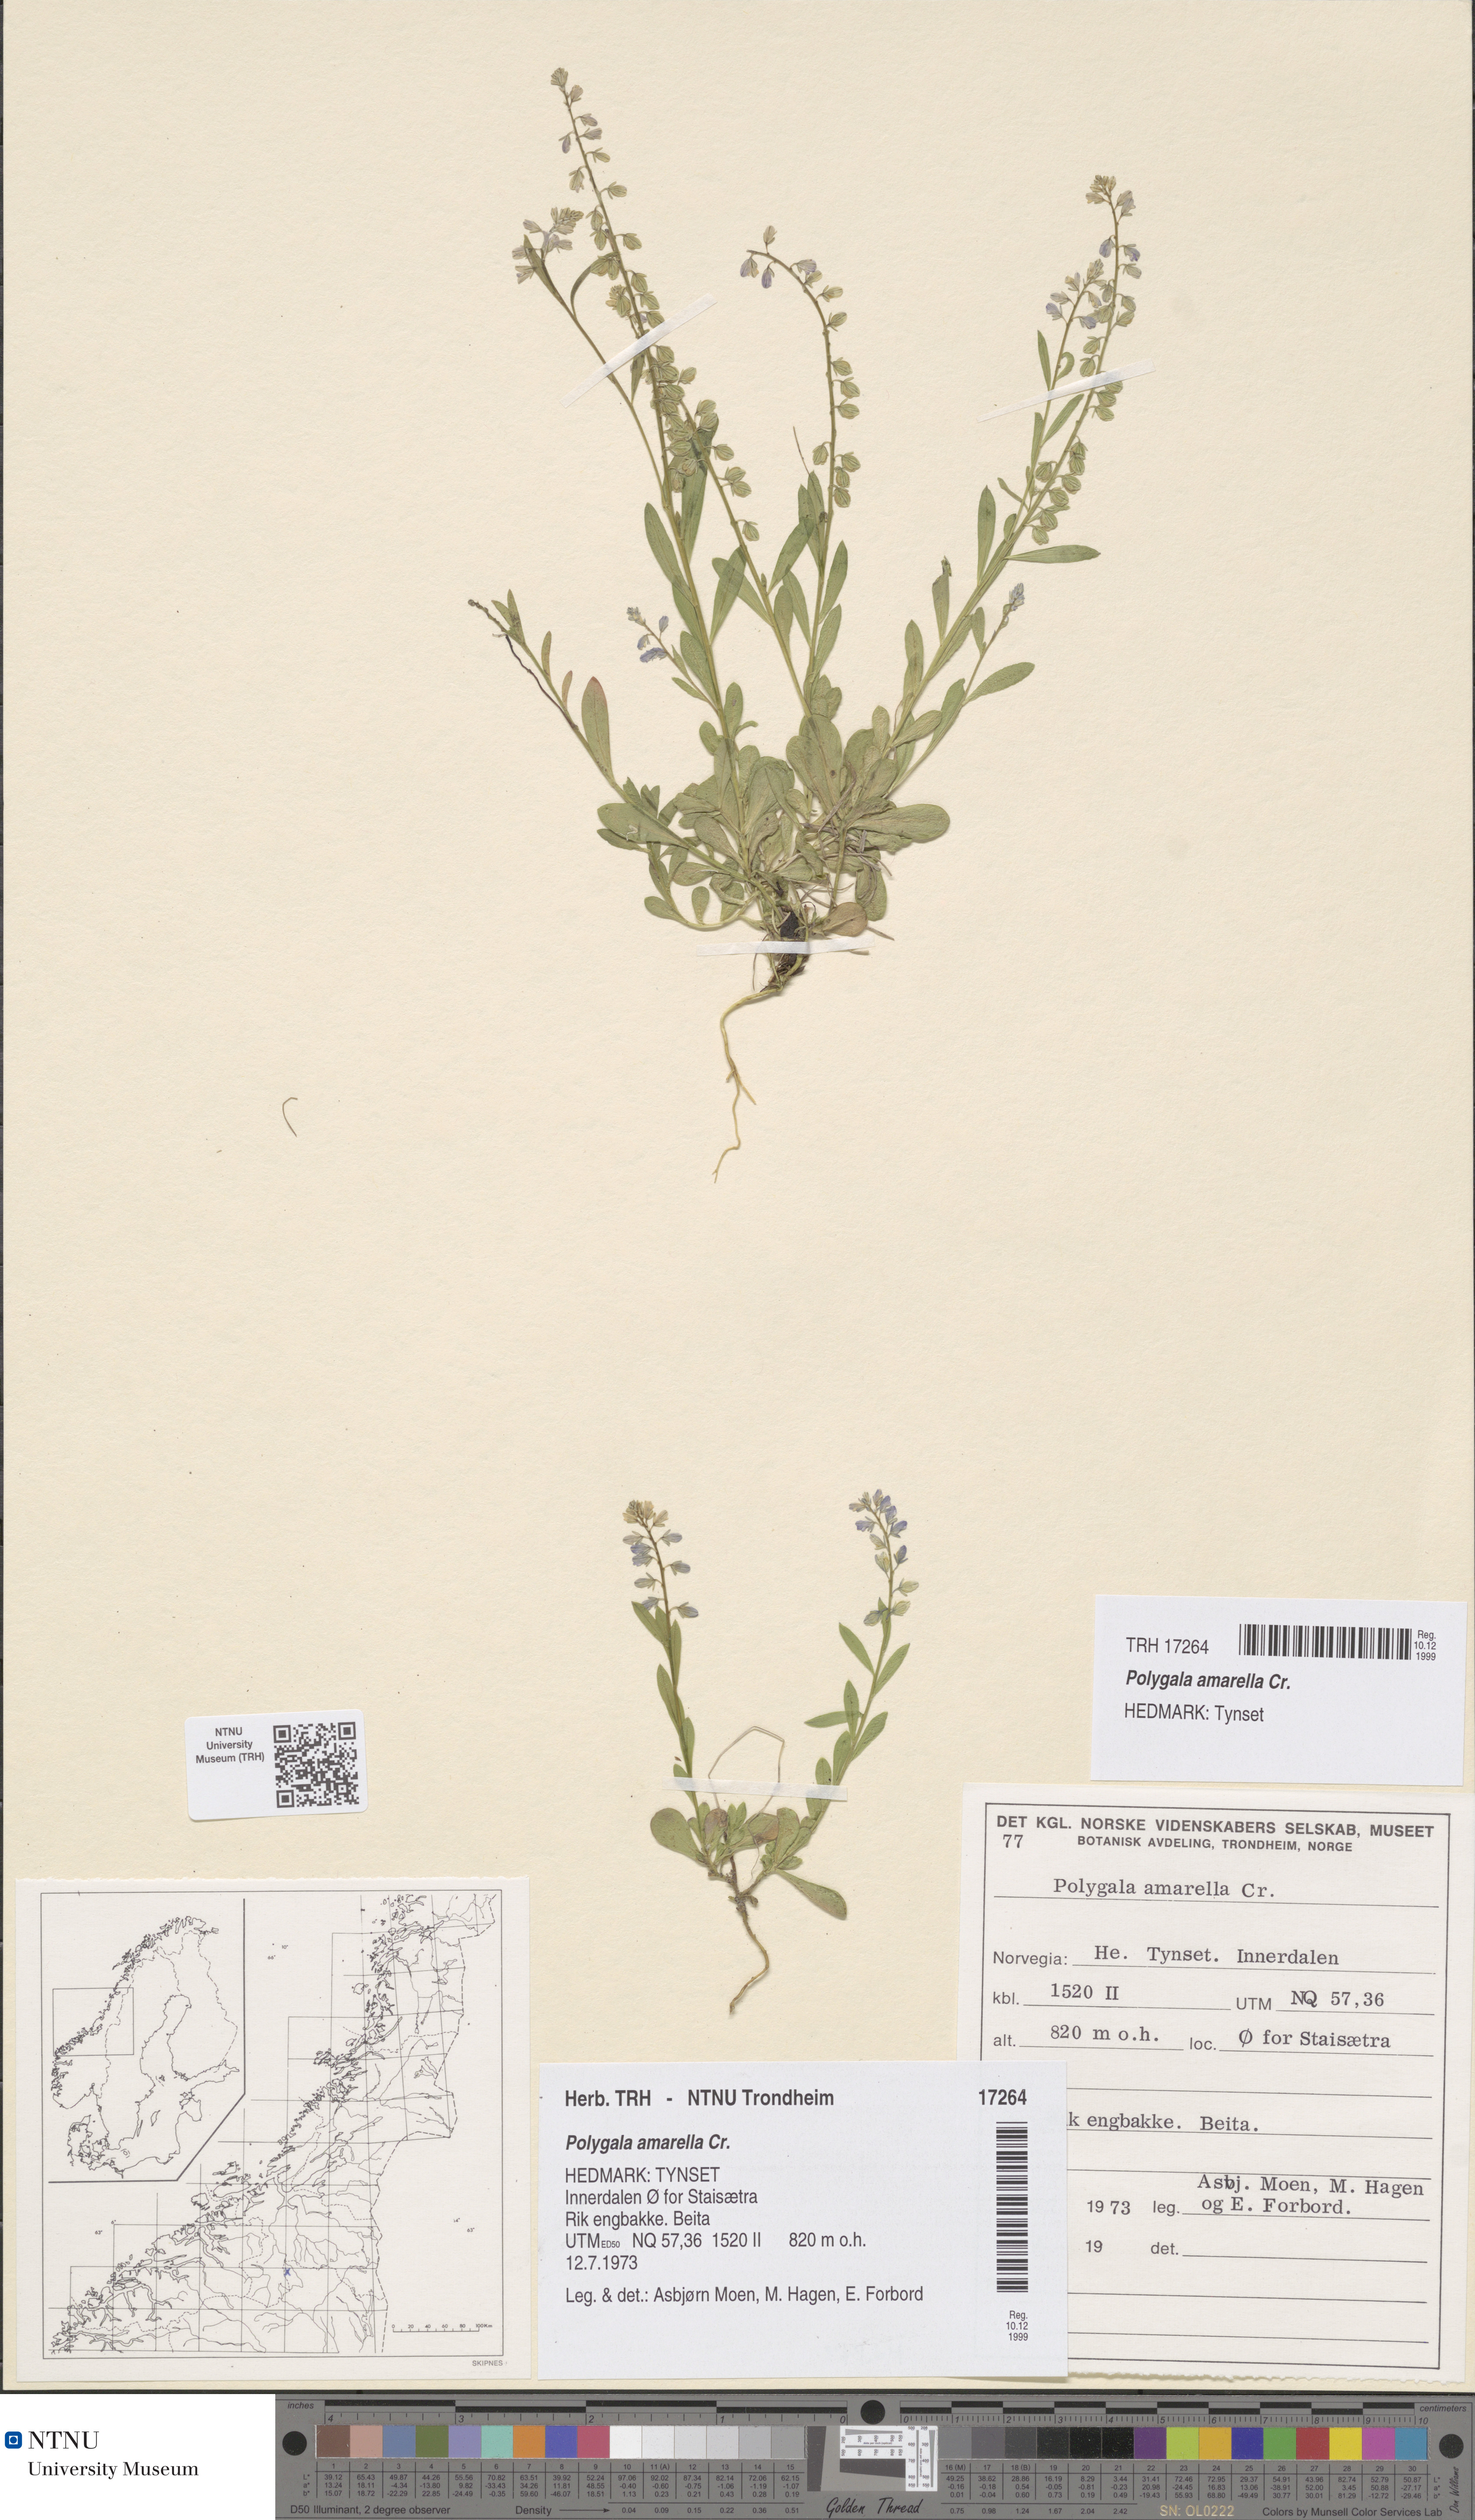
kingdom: Plantae
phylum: Tracheophyta
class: Magnoliopsida
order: Fabales
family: Polygalaceae
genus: Polygala
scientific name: Polygala amarella
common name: Dwarf milkwort
